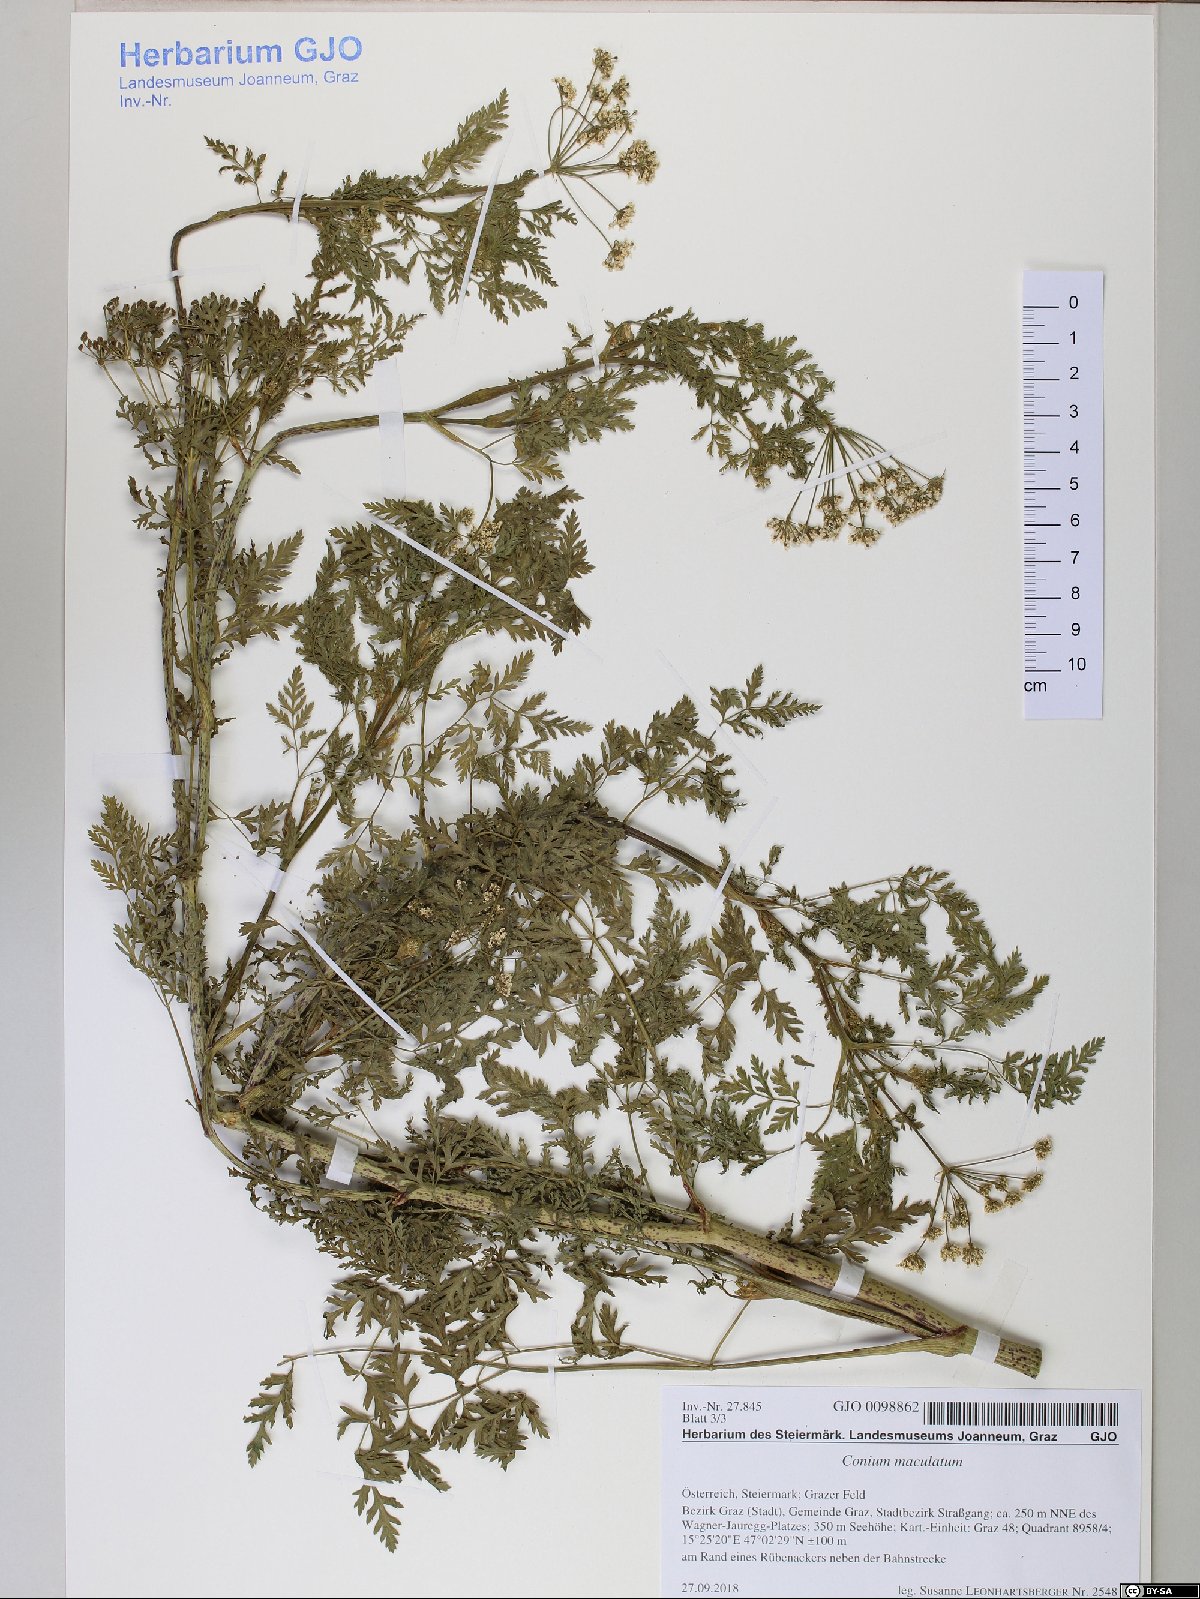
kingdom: Plantae
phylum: Tracheophyta
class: Magnoliopsida
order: Apiales
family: Apiaceae
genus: Conium
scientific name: Conium maculatum
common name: Hemlock
